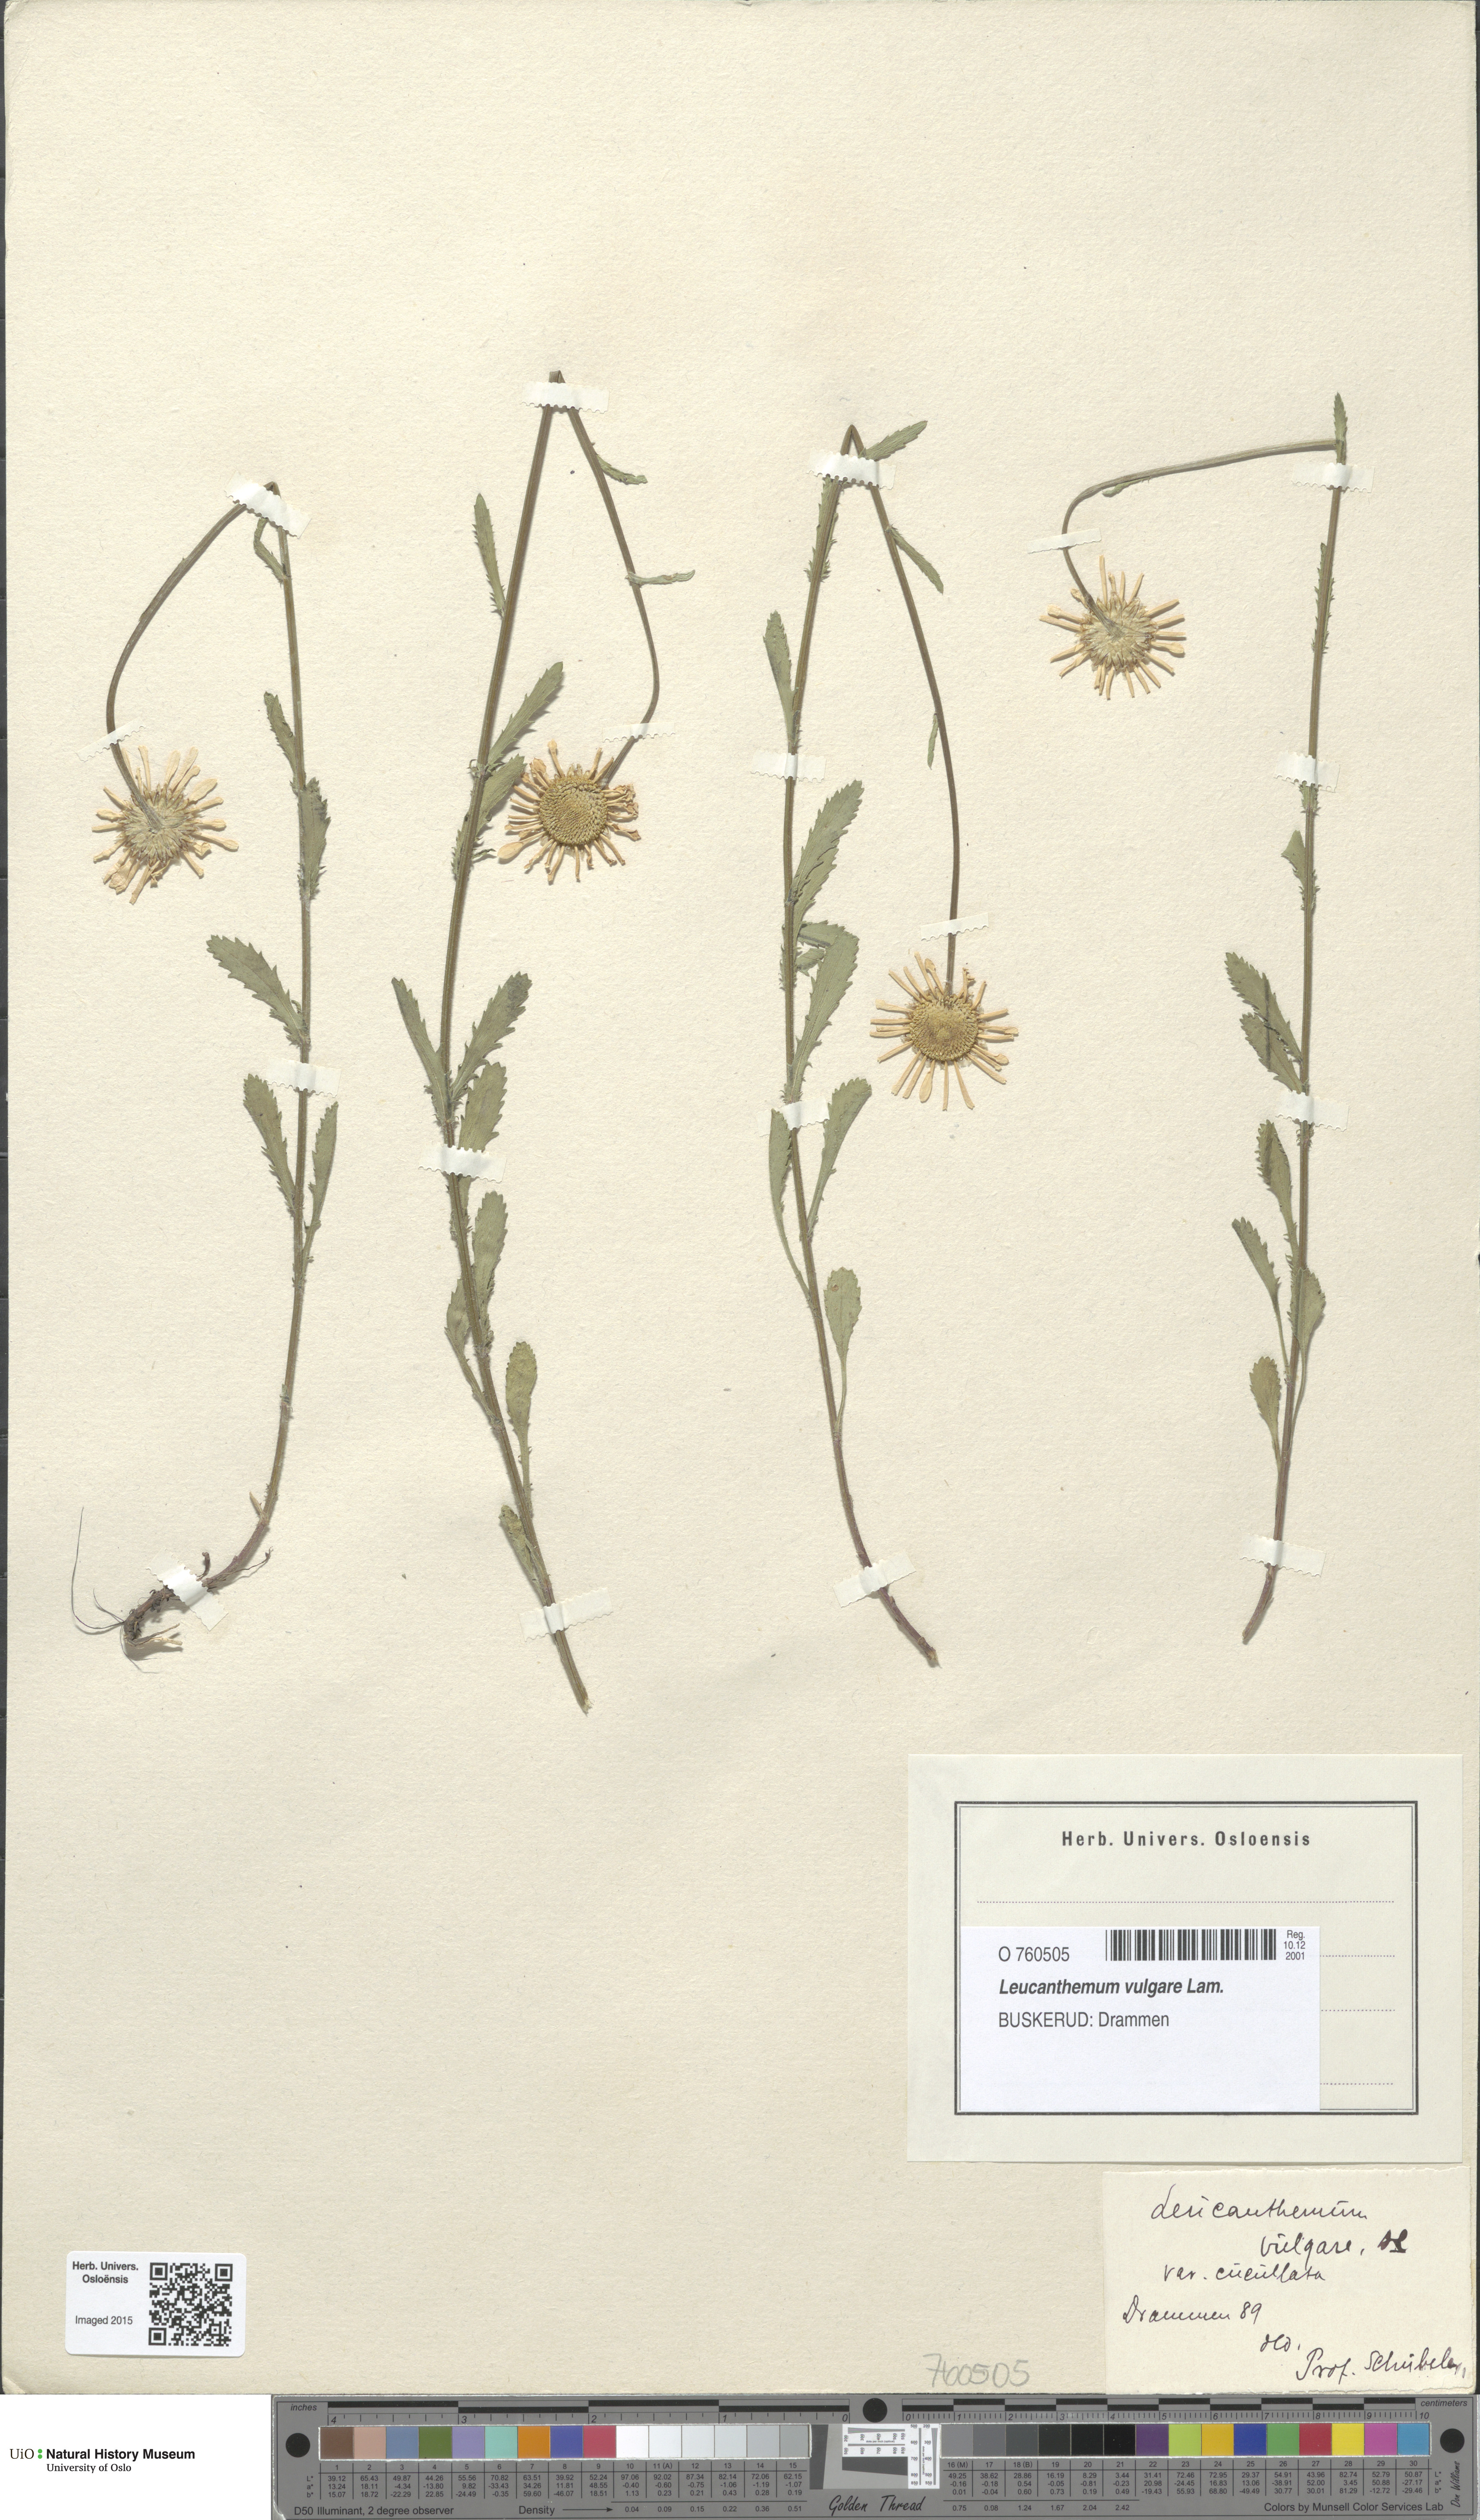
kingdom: Plantae
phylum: Tracheophyta
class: Magnoliopsida
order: Asterales
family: Asteraceae
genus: Leucanthemum
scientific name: Leucanthemum vulgare
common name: Oxeye daisy
